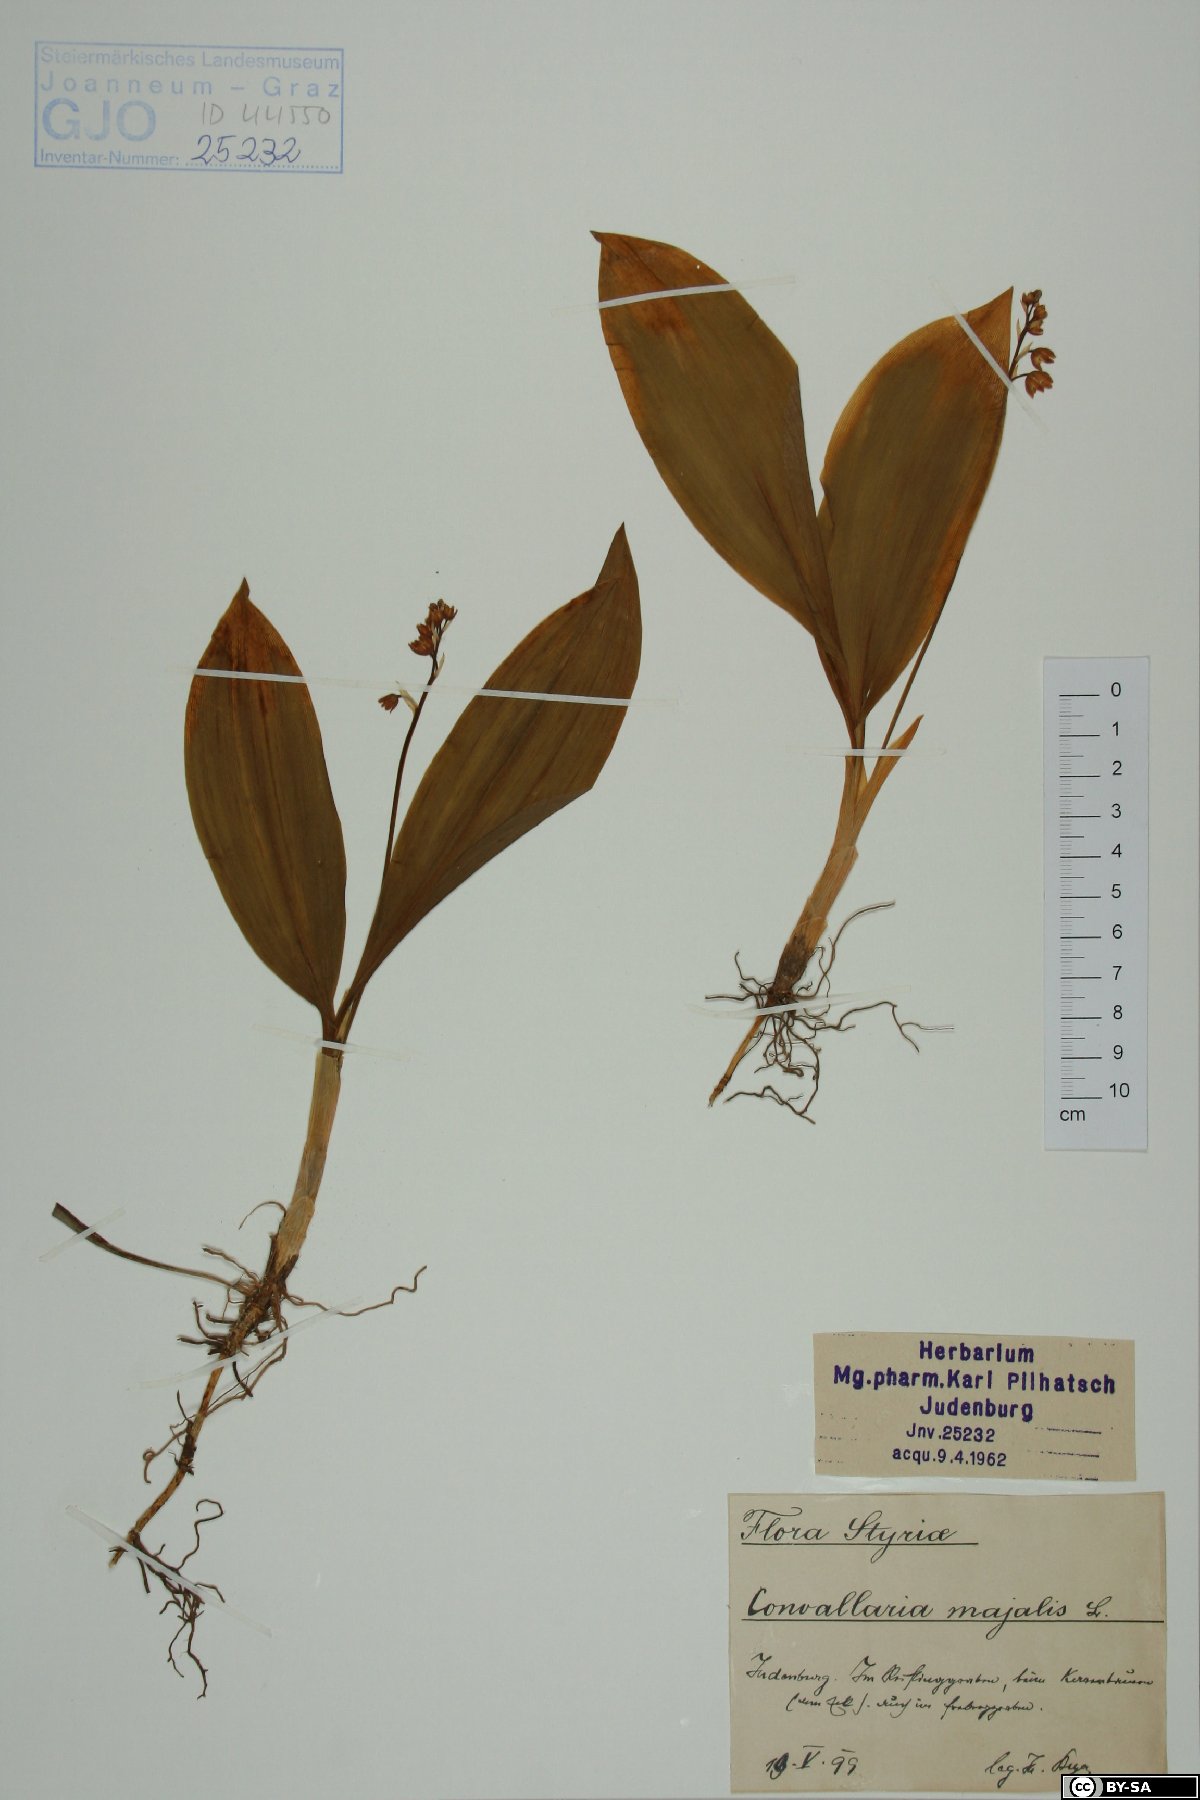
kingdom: Plantae
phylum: Tracheophyta
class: Liliopsida
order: Asparagales
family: Asparagaceae
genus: Convallaria
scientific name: Convallaria majalis
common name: Lily-of-the-valley
